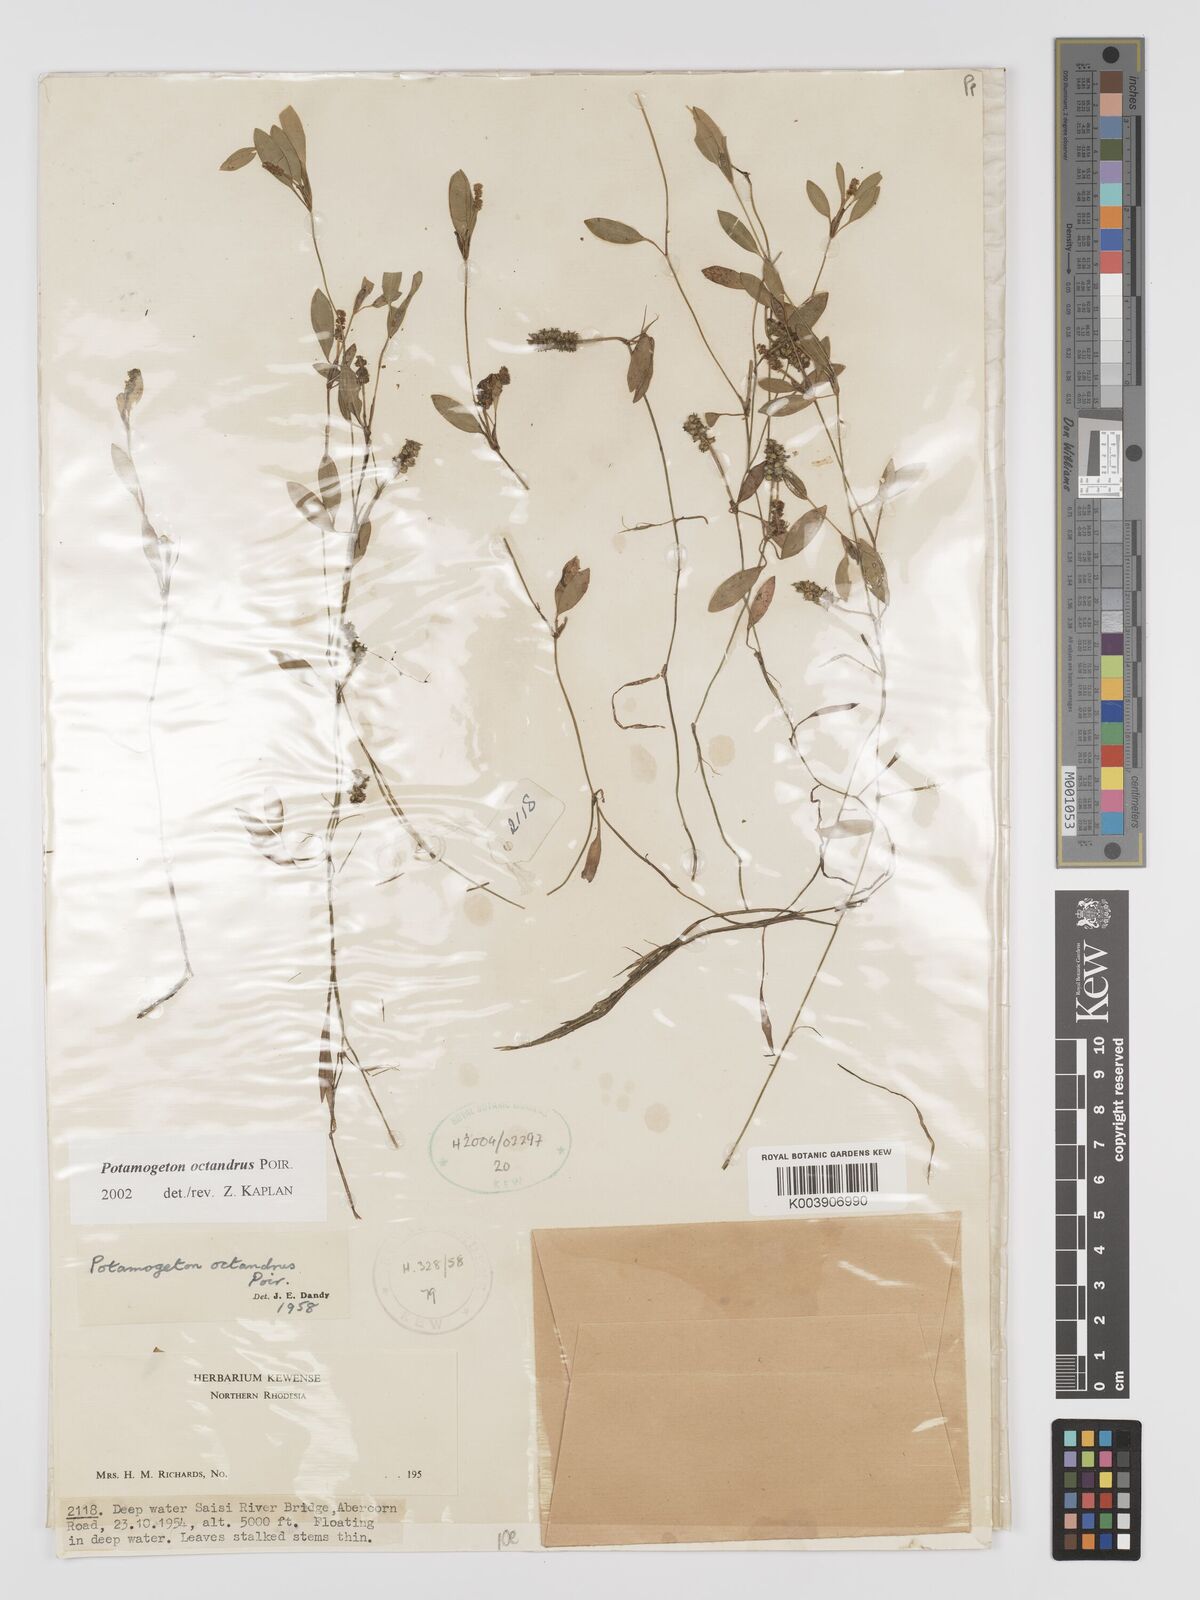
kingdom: Plantae
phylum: Tracheophyta
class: Liliopsida
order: Alismatales
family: Potamogetonaceae
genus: Potamogeton
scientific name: Potamogeton octandrus
